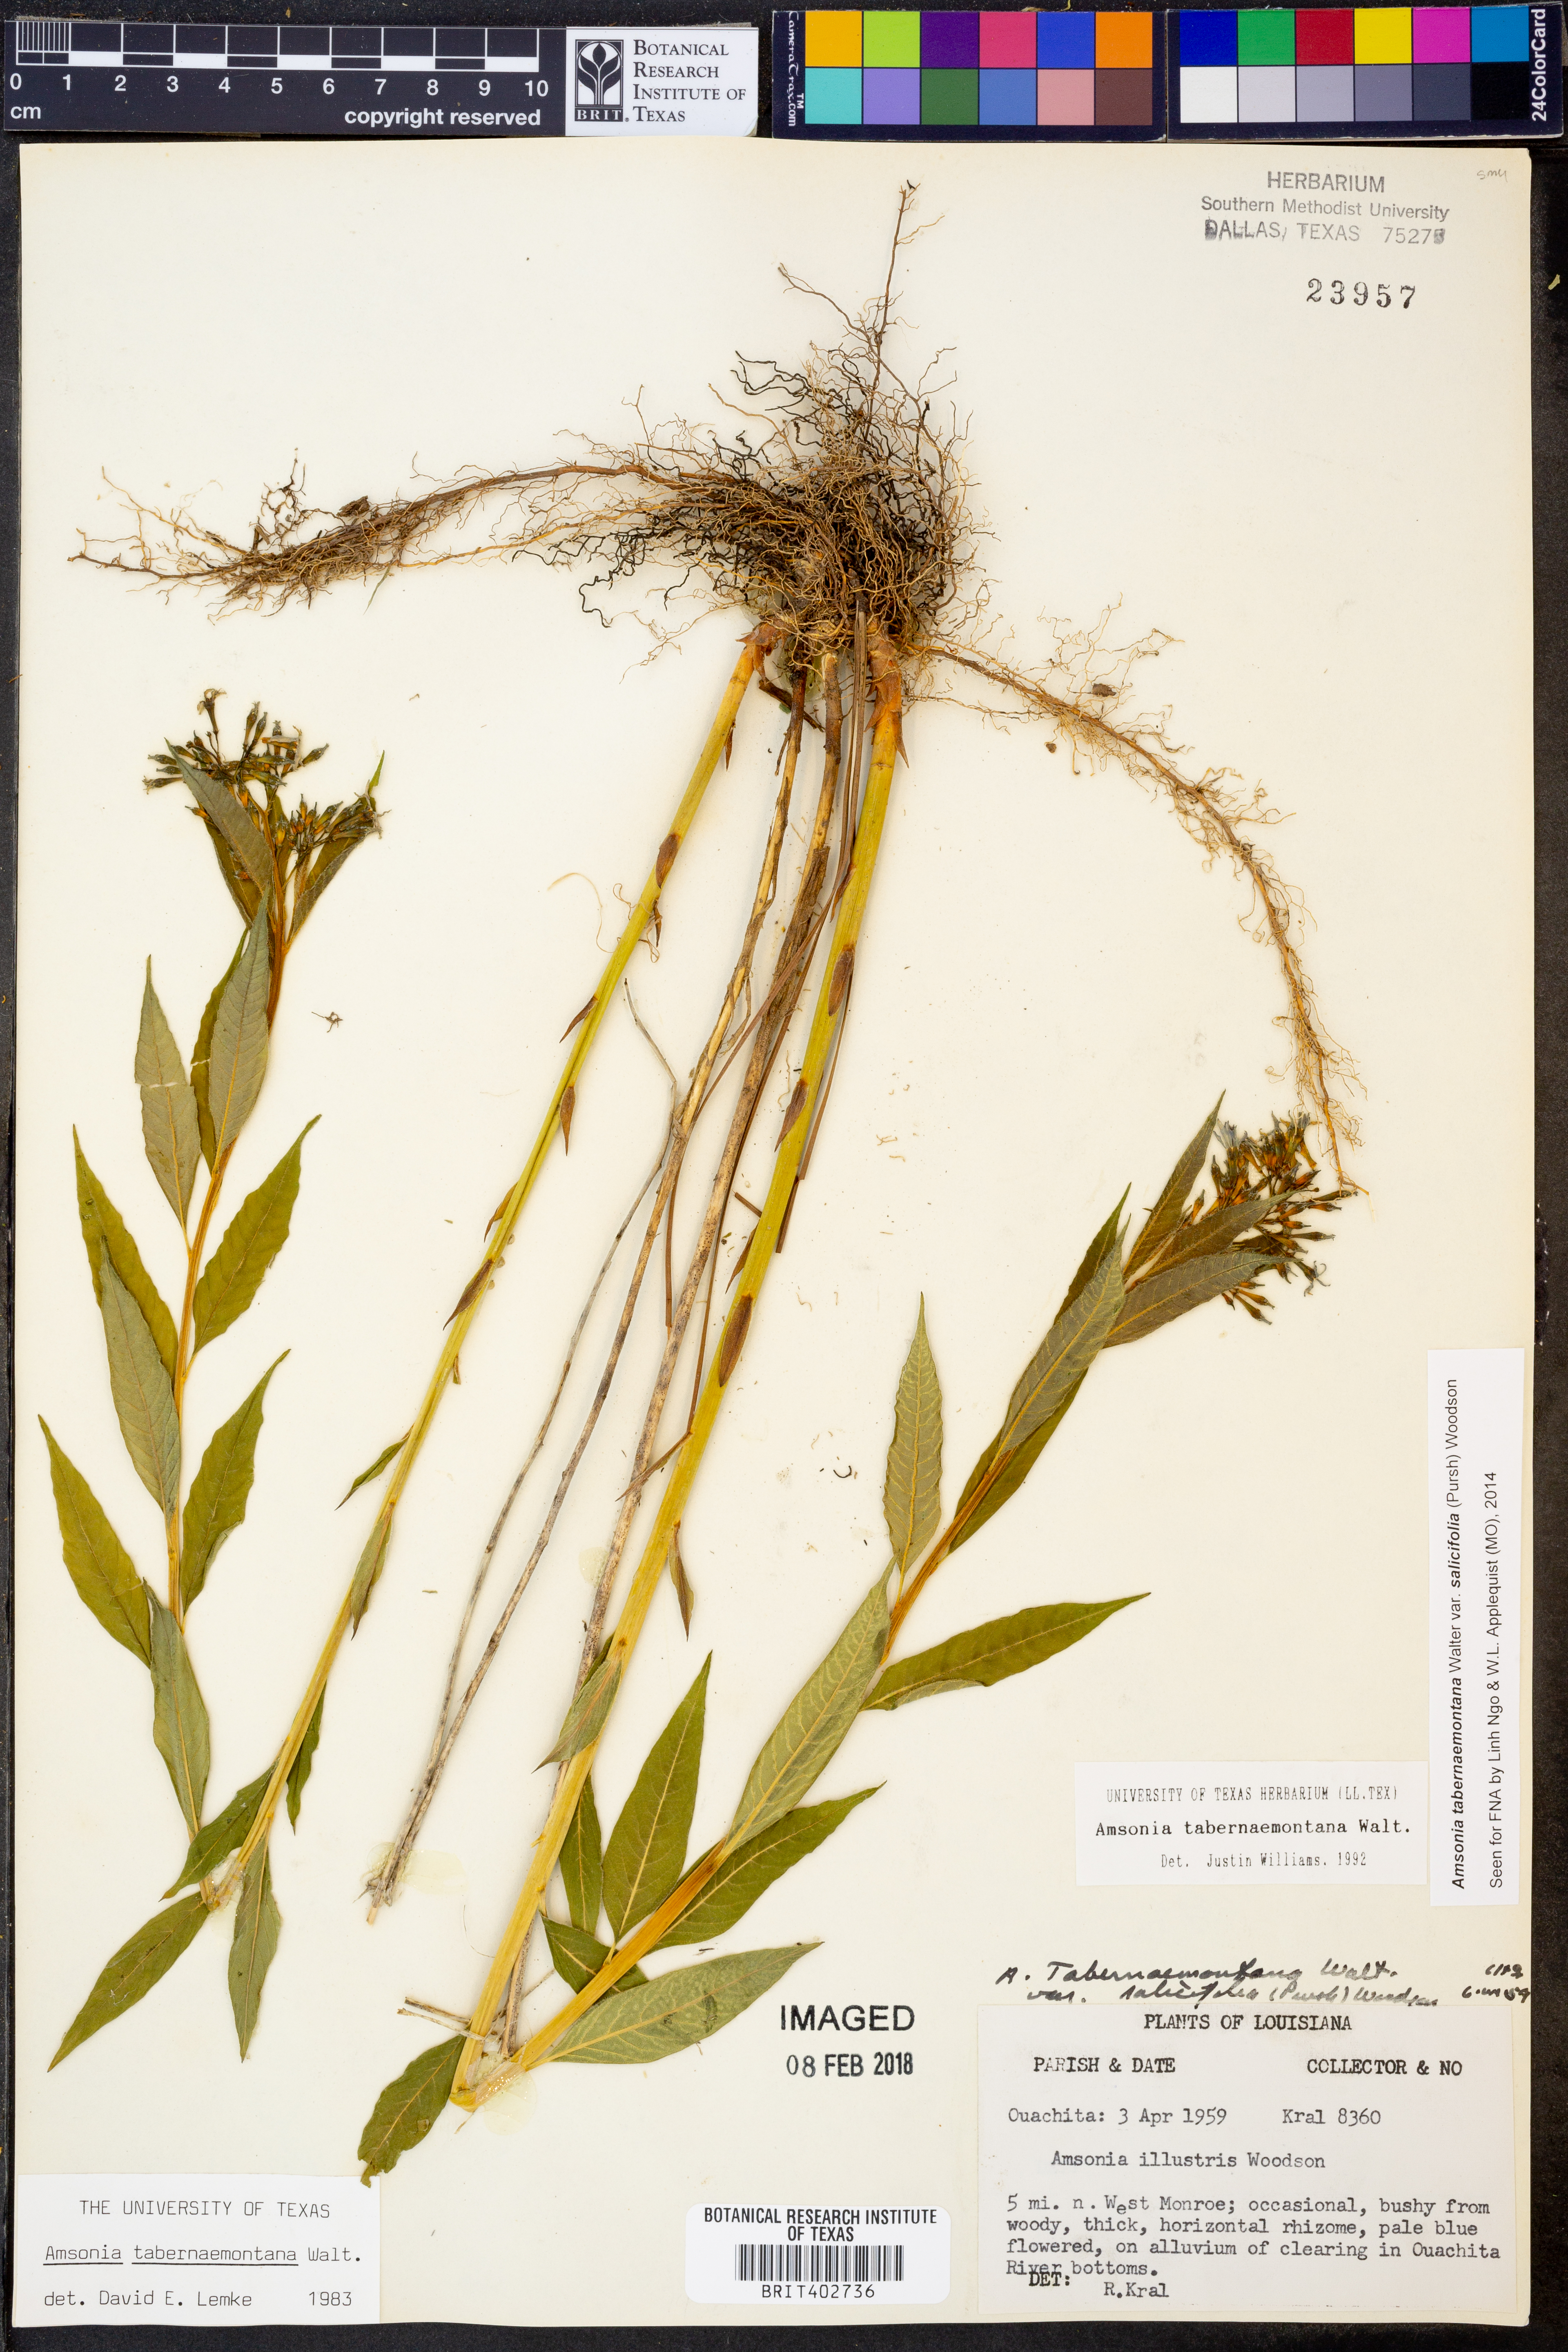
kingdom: Plantae
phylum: Tracheophyta
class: Magnoliopsida
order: Gentianales
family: Apocynaceae
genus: Amsonia
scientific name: Amsonia tabernaemontana
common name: Texas-star
